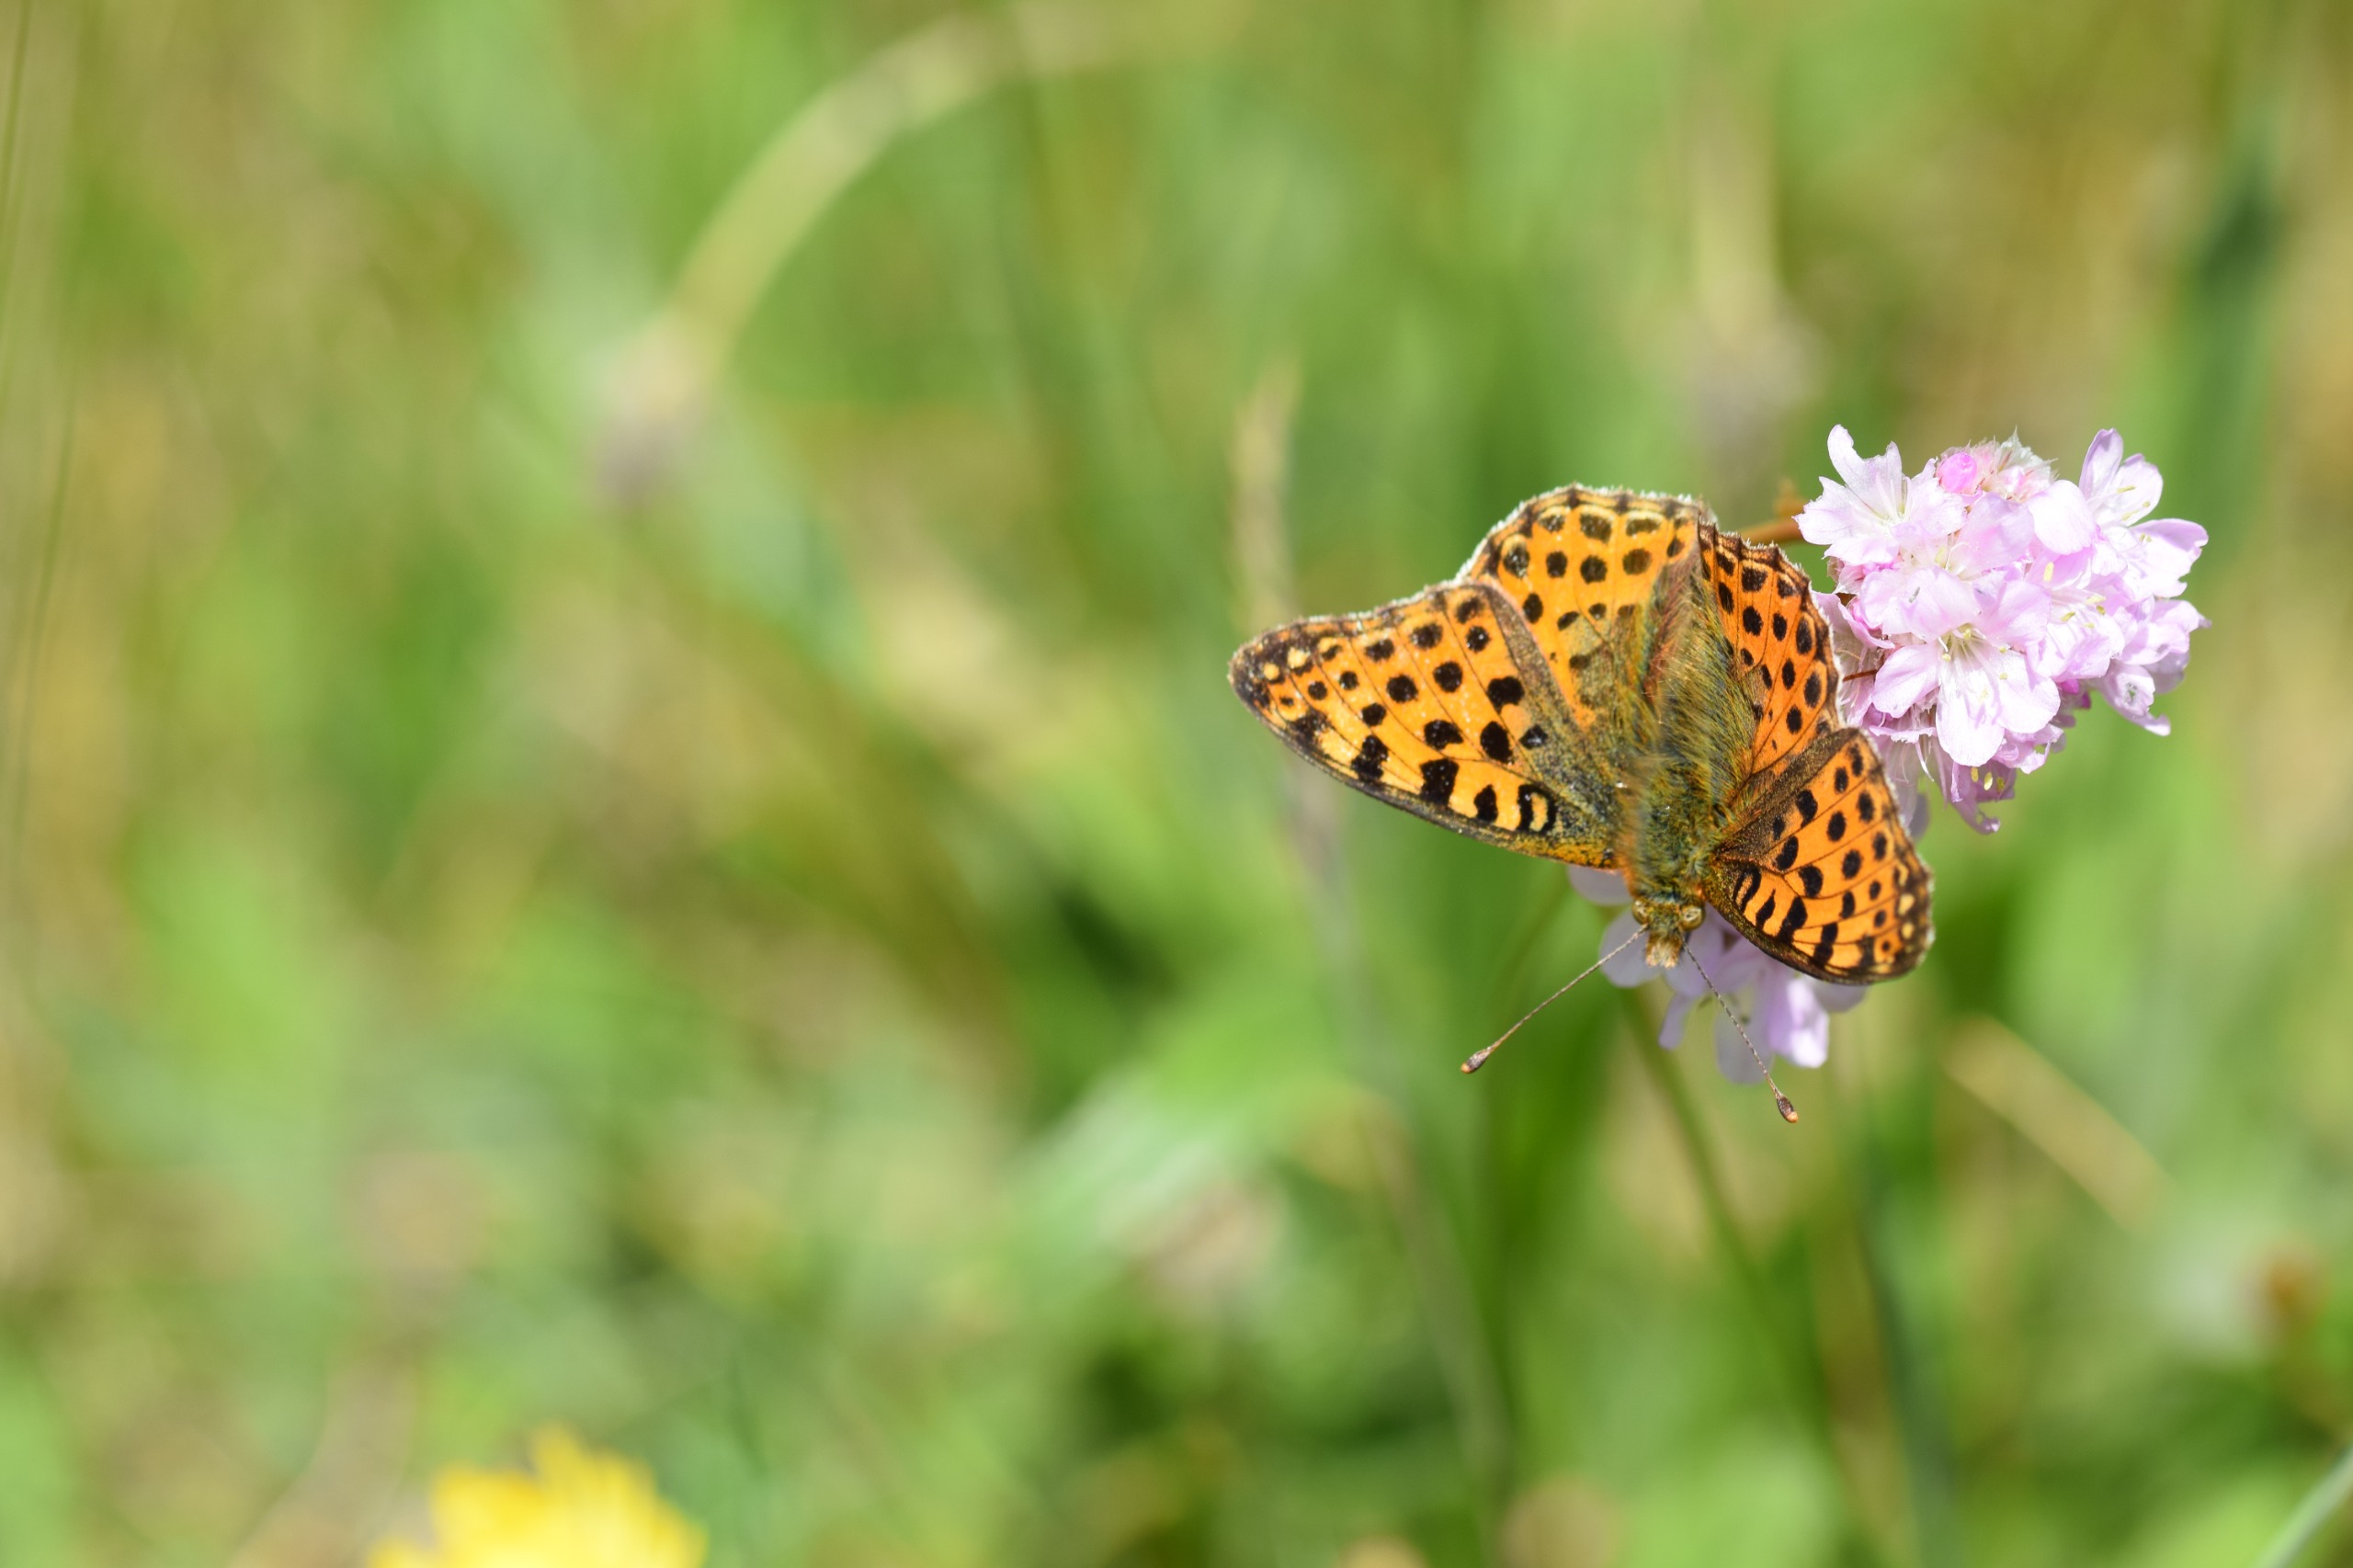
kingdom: Animalia
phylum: Arthropoda
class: Insecta
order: Lepidoptera
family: Nymphalidae
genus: Issoria
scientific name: Issoria lathonia
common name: Storplettet perlemorsommerfugl
